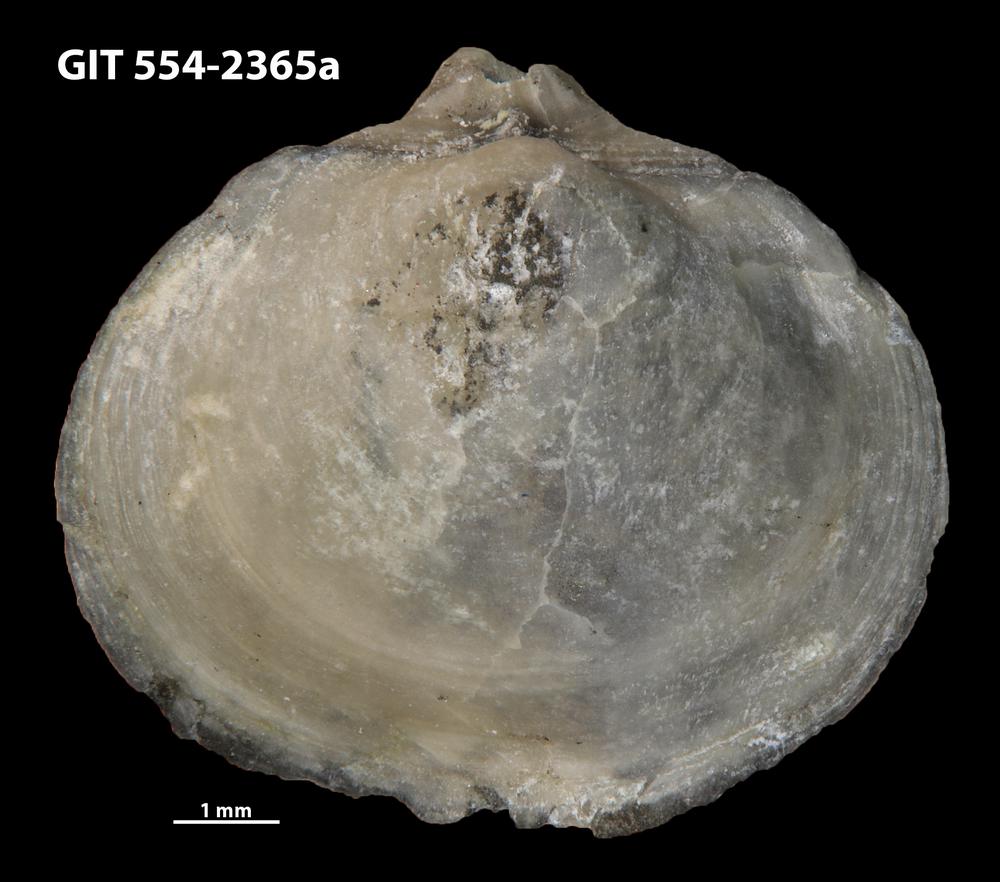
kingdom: Animalia
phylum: Brachiopoda
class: Rhynchonellata
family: Triplesiidae
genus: Triplesia
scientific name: Triplesia maennili
